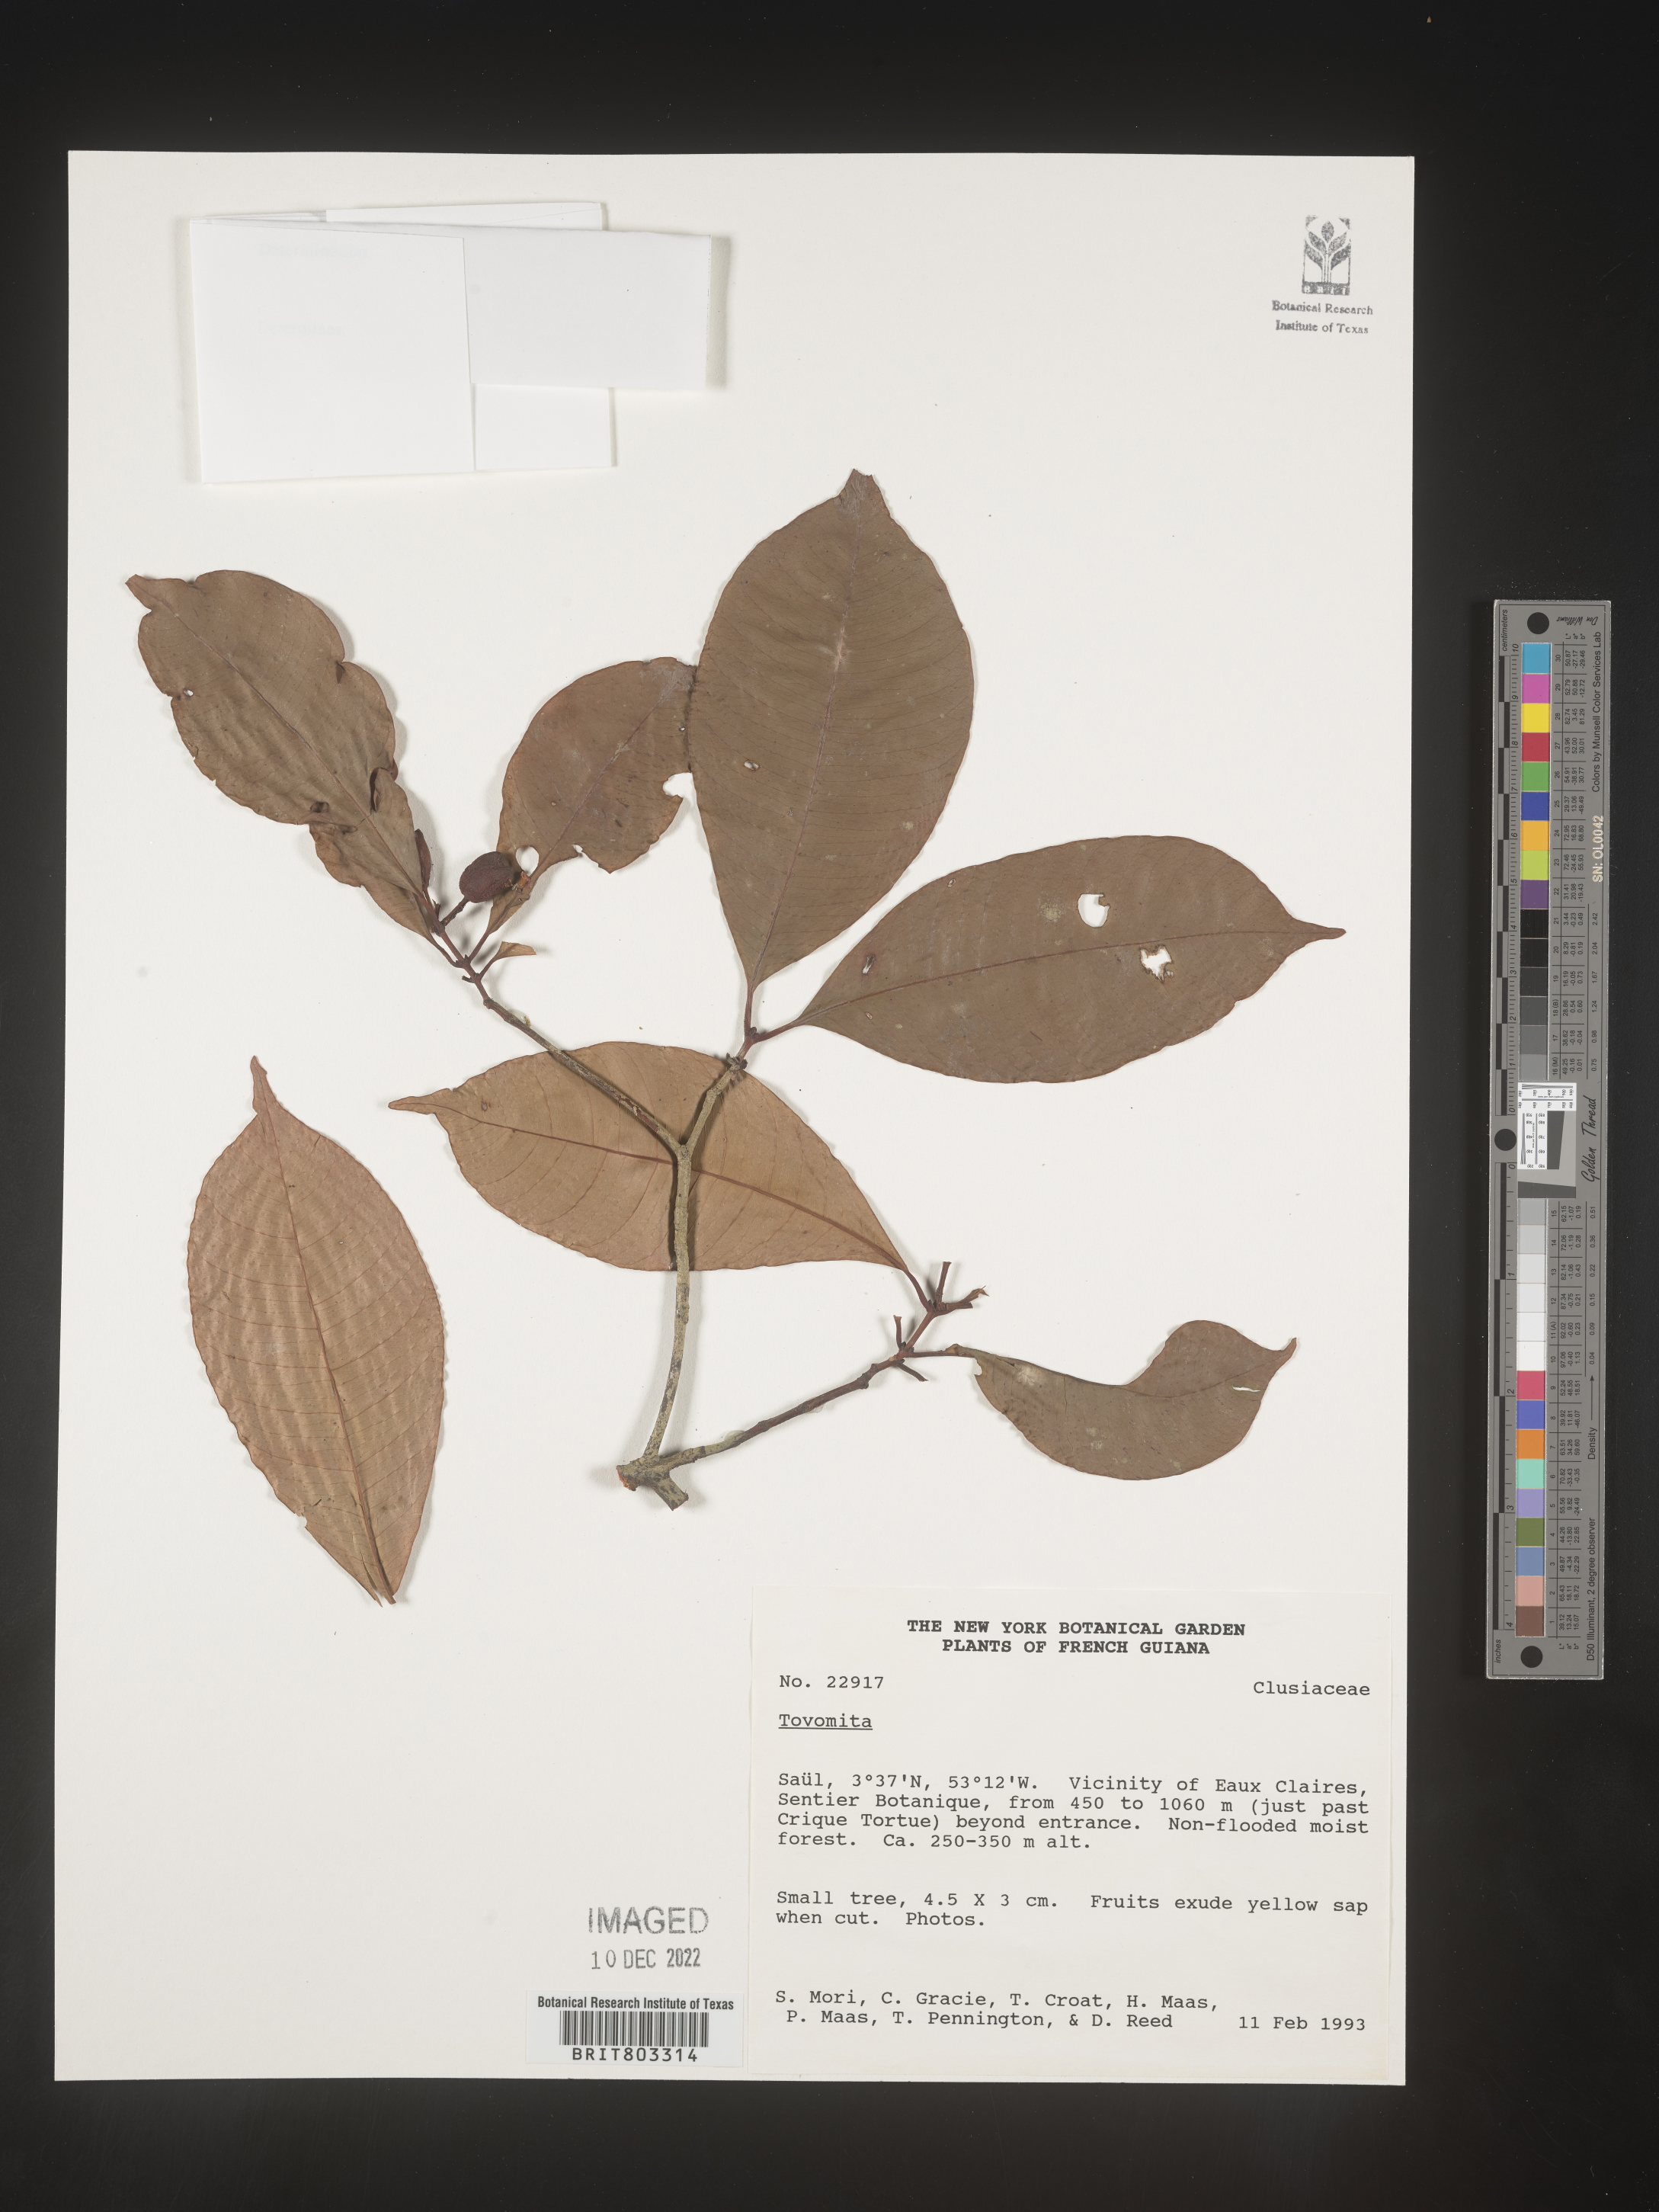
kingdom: Plantae
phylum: Tracheophyta
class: Magnoliopsida
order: Malpighiales
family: Clusiaceae
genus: Tovomita
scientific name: Tovomita
